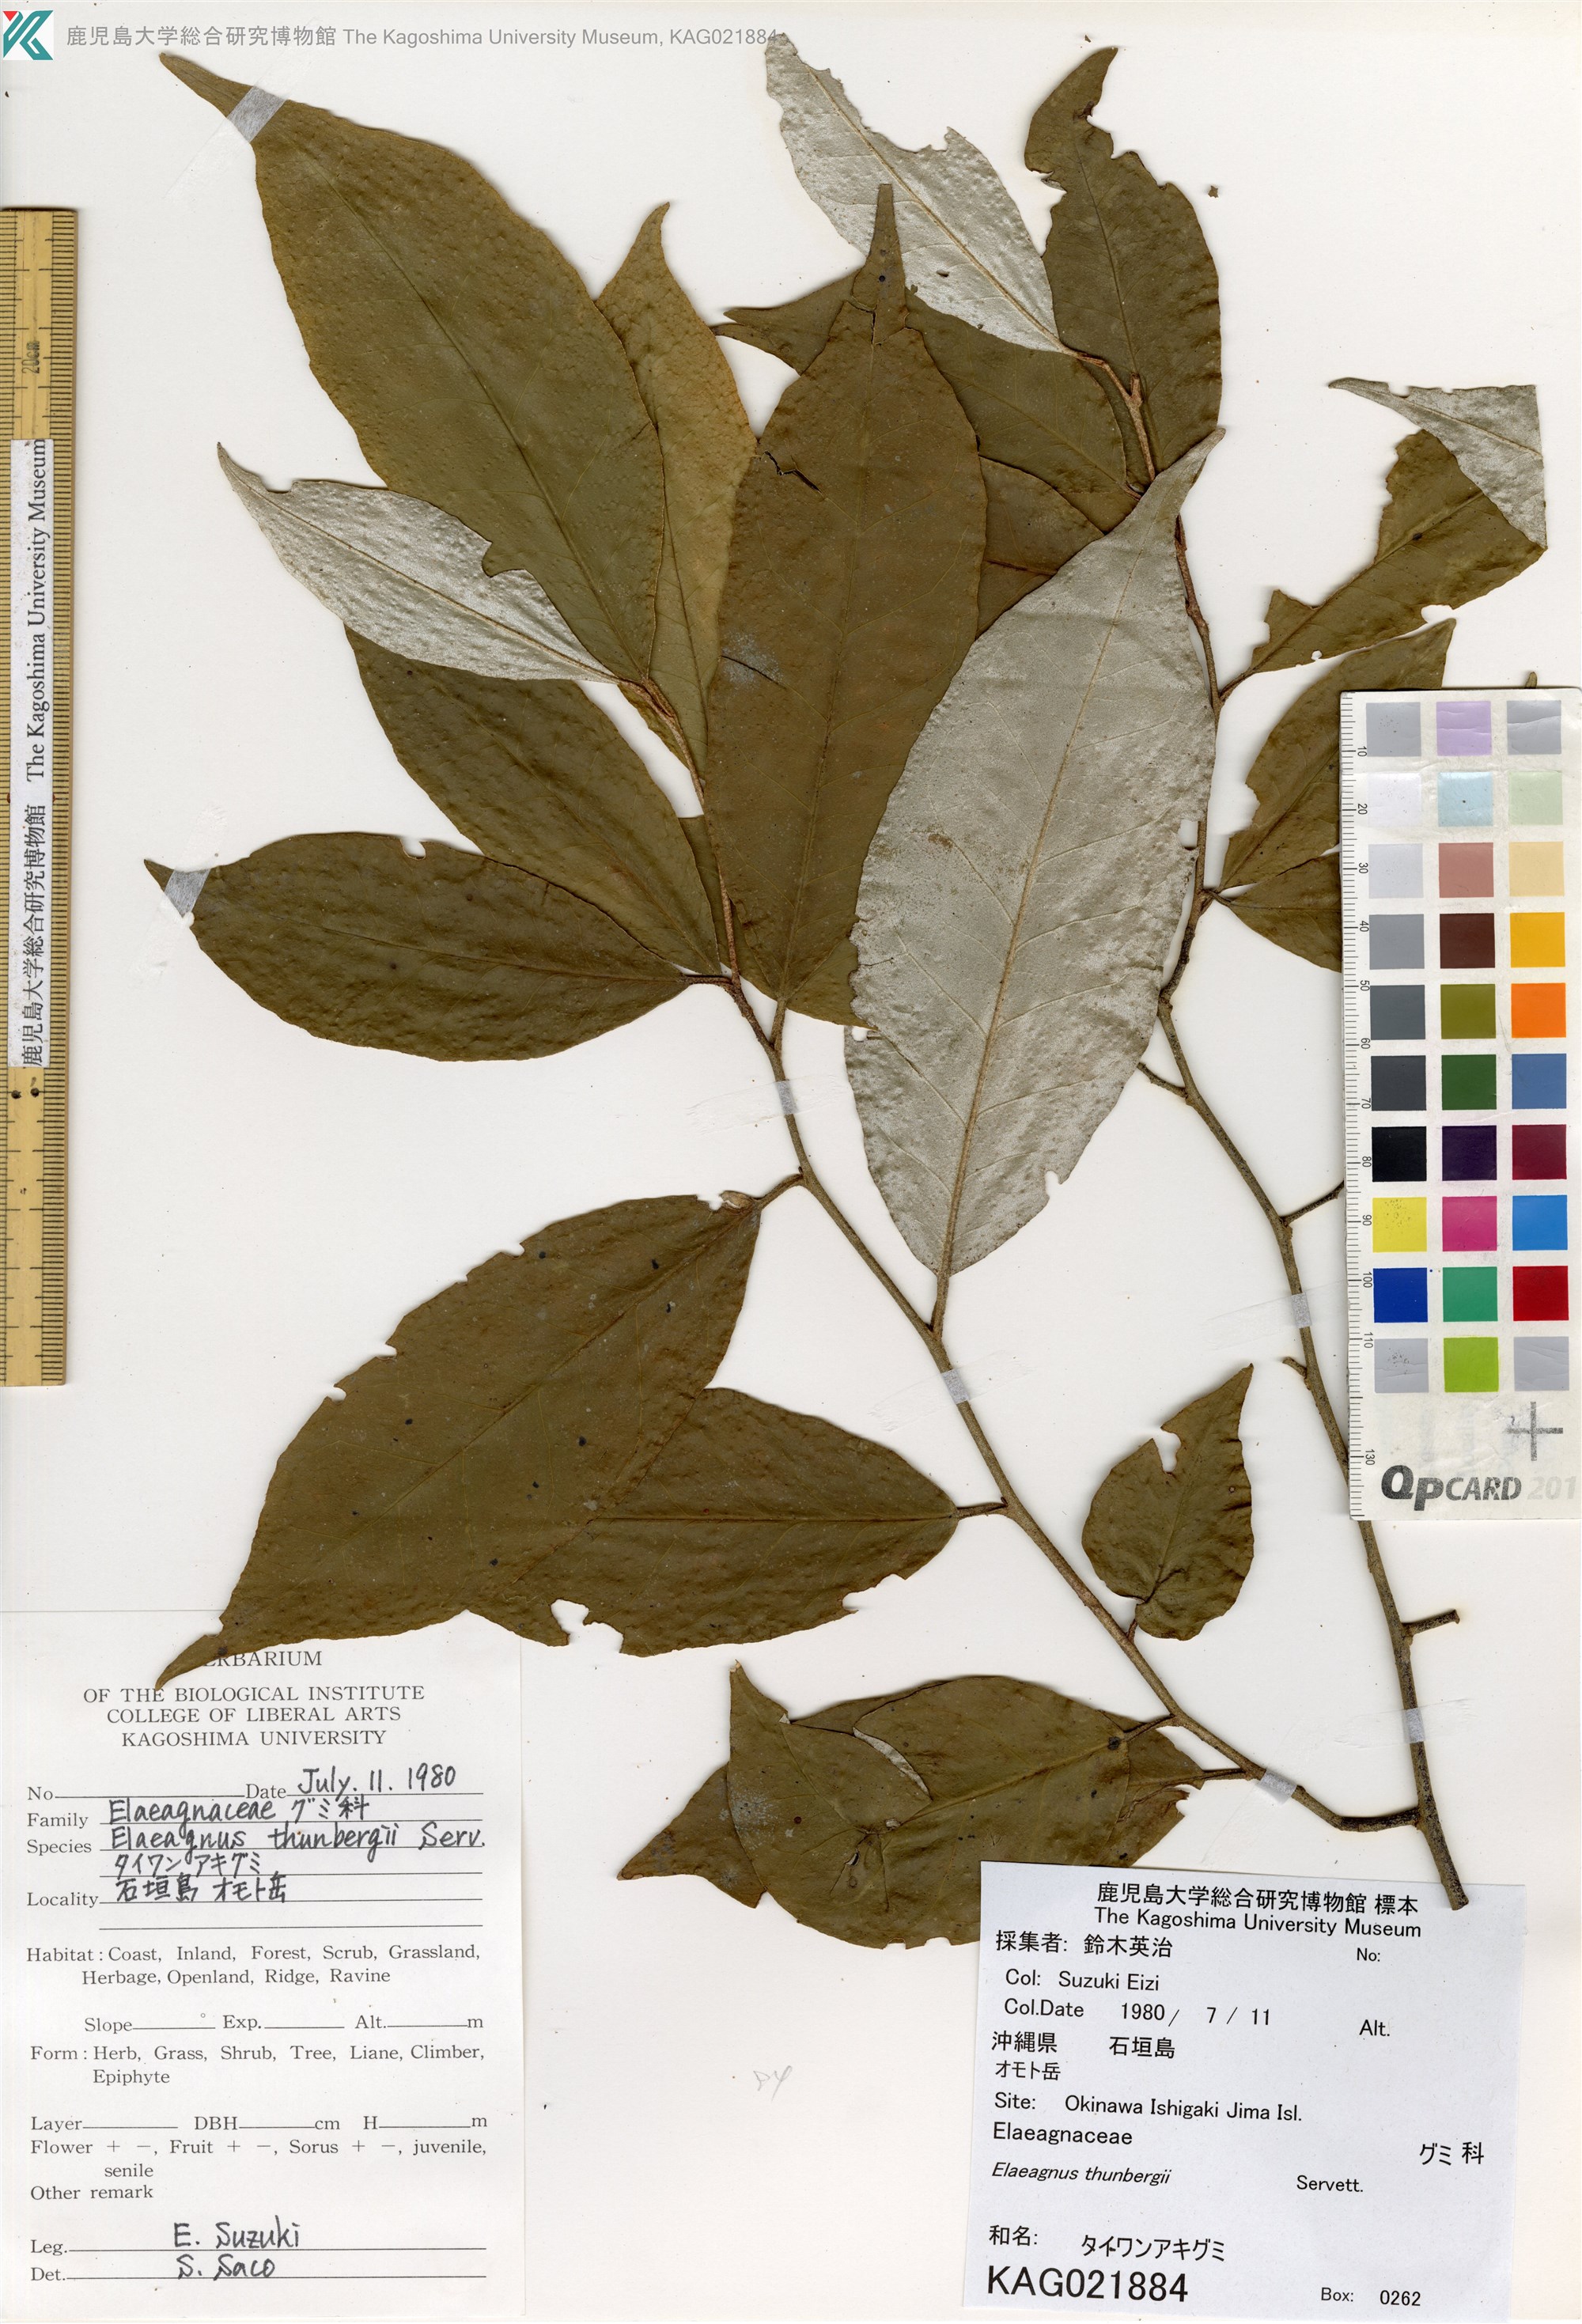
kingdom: Plantae
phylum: Tracheophyta
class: Magnoliopsida
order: Rosales
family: Elaeagnaceae
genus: Elaeagnus
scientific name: Elaeagnus thunbergii
